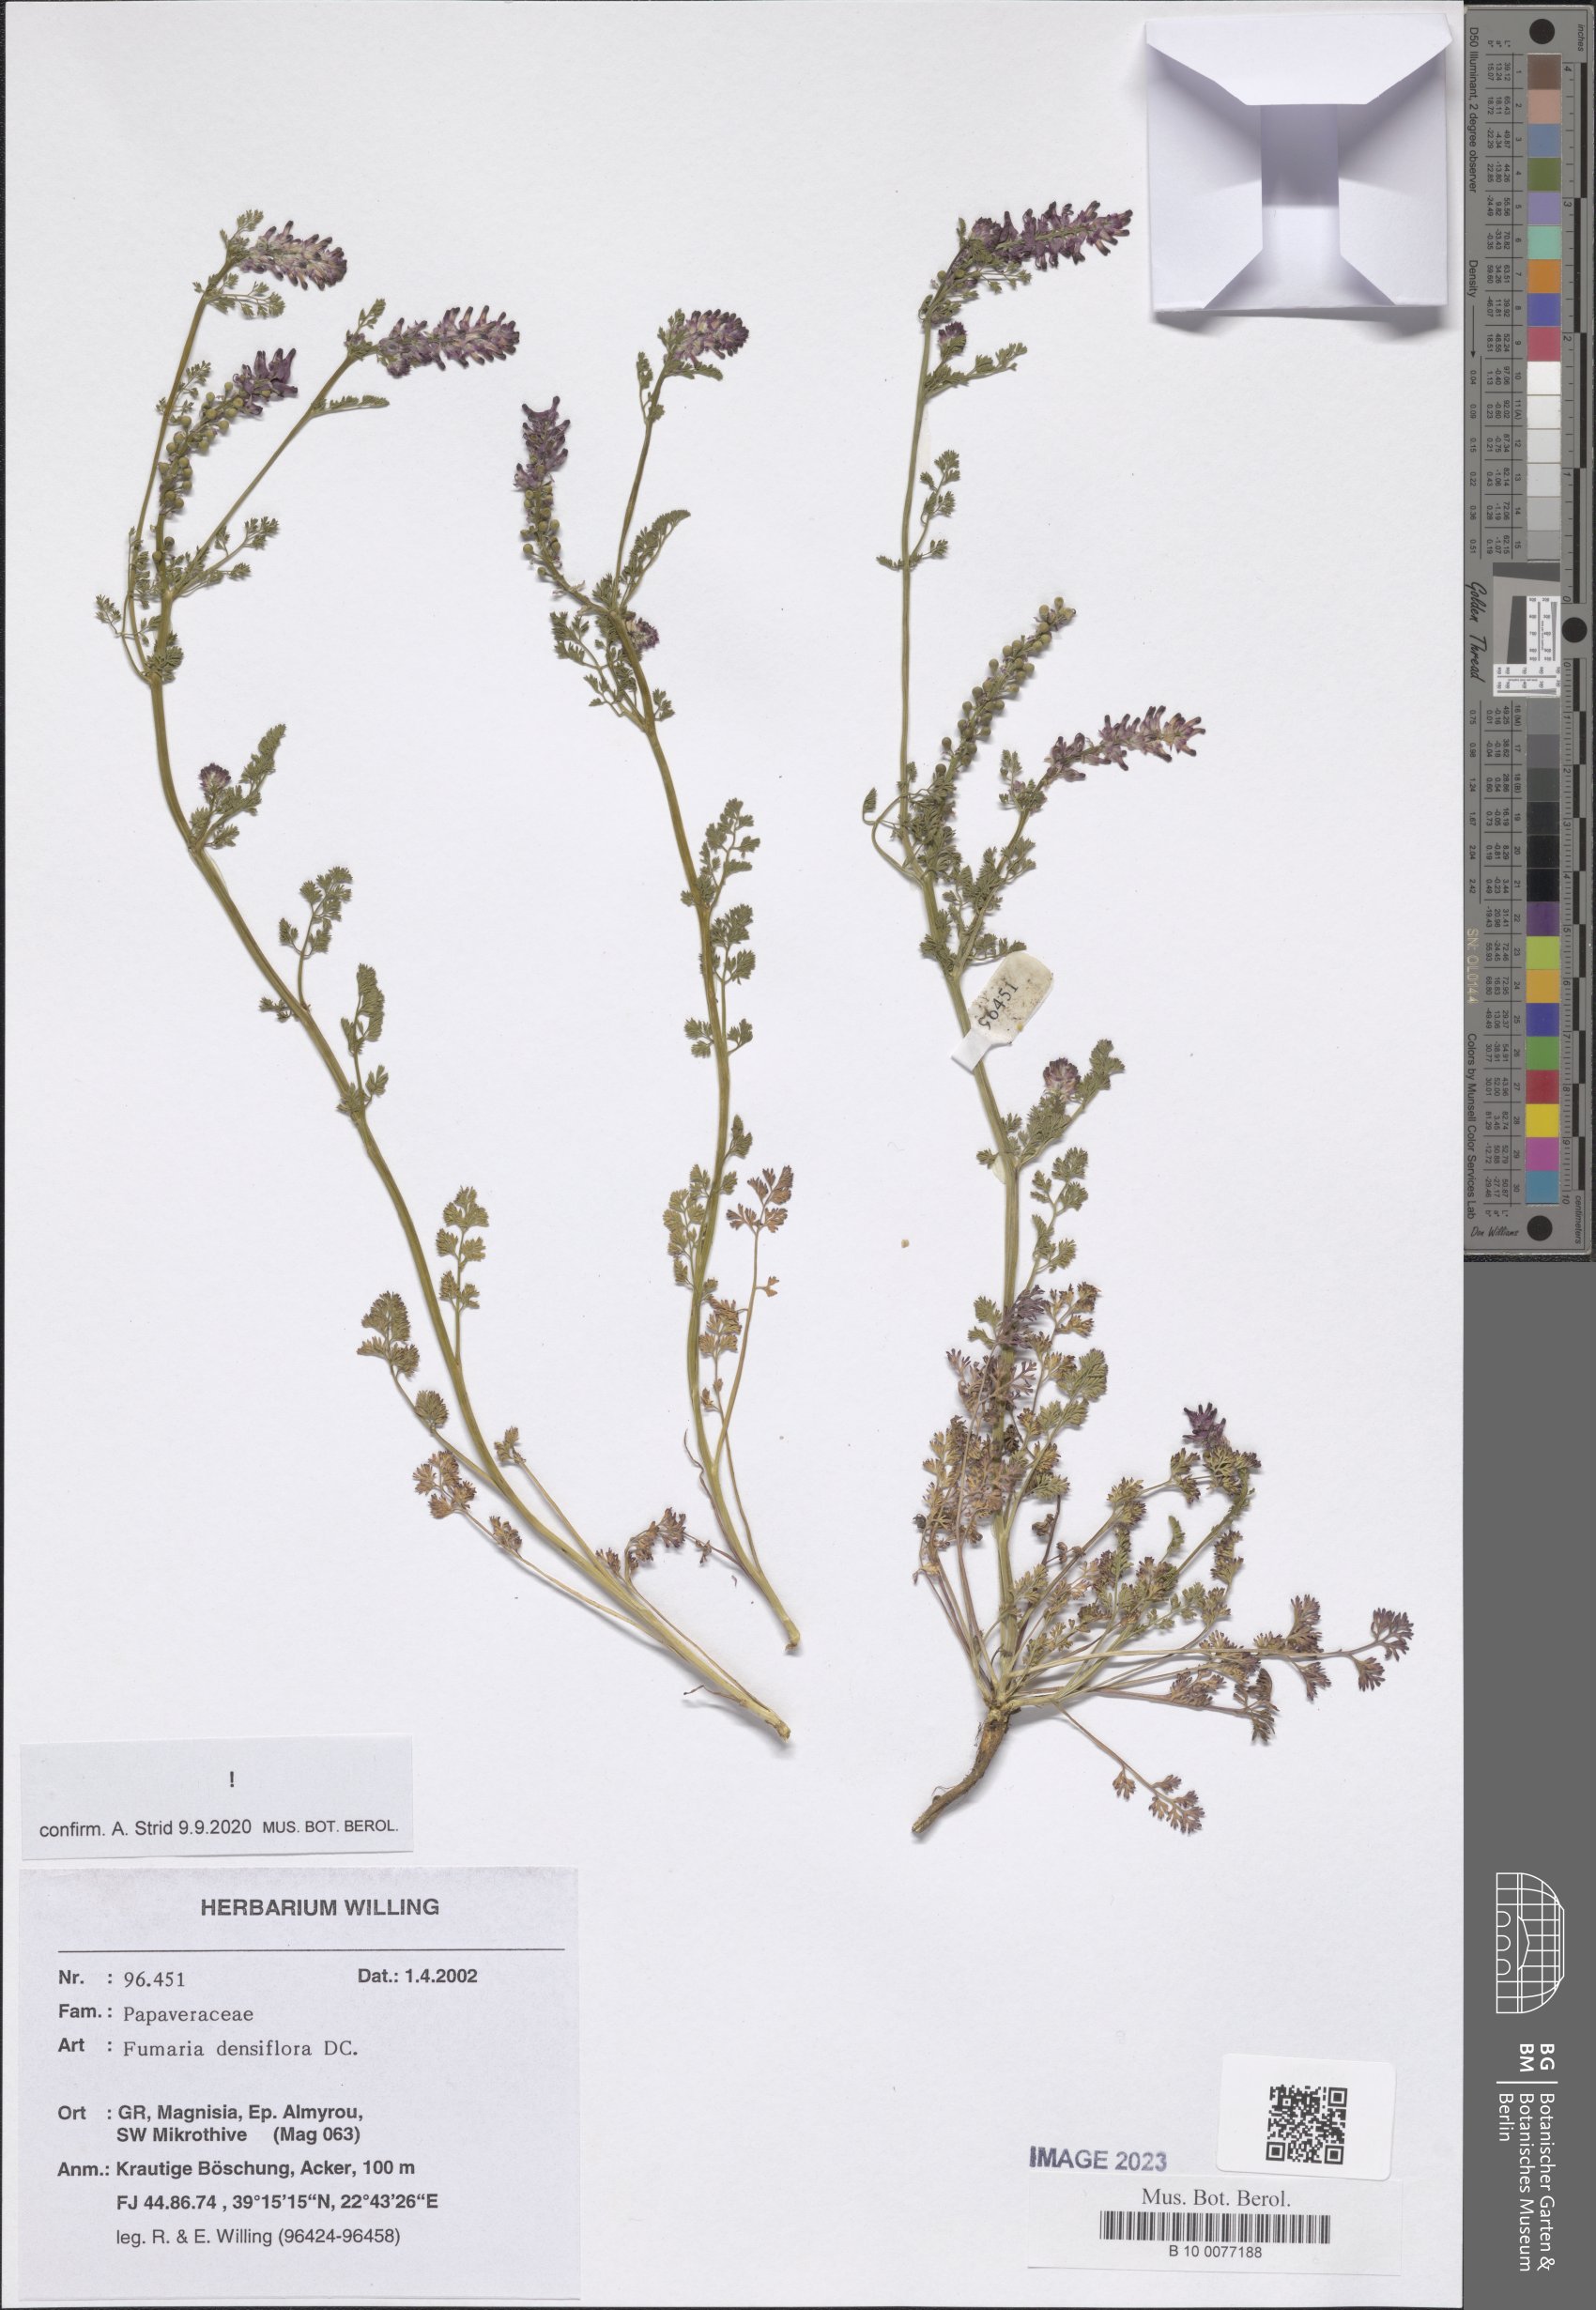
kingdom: Plantae
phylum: Tracheophyta
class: Magnoliopsida
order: Ranunculales
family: Papaveraceae
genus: Fumaria
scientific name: Fumaria densiflora
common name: Dense-flowered fumitory
